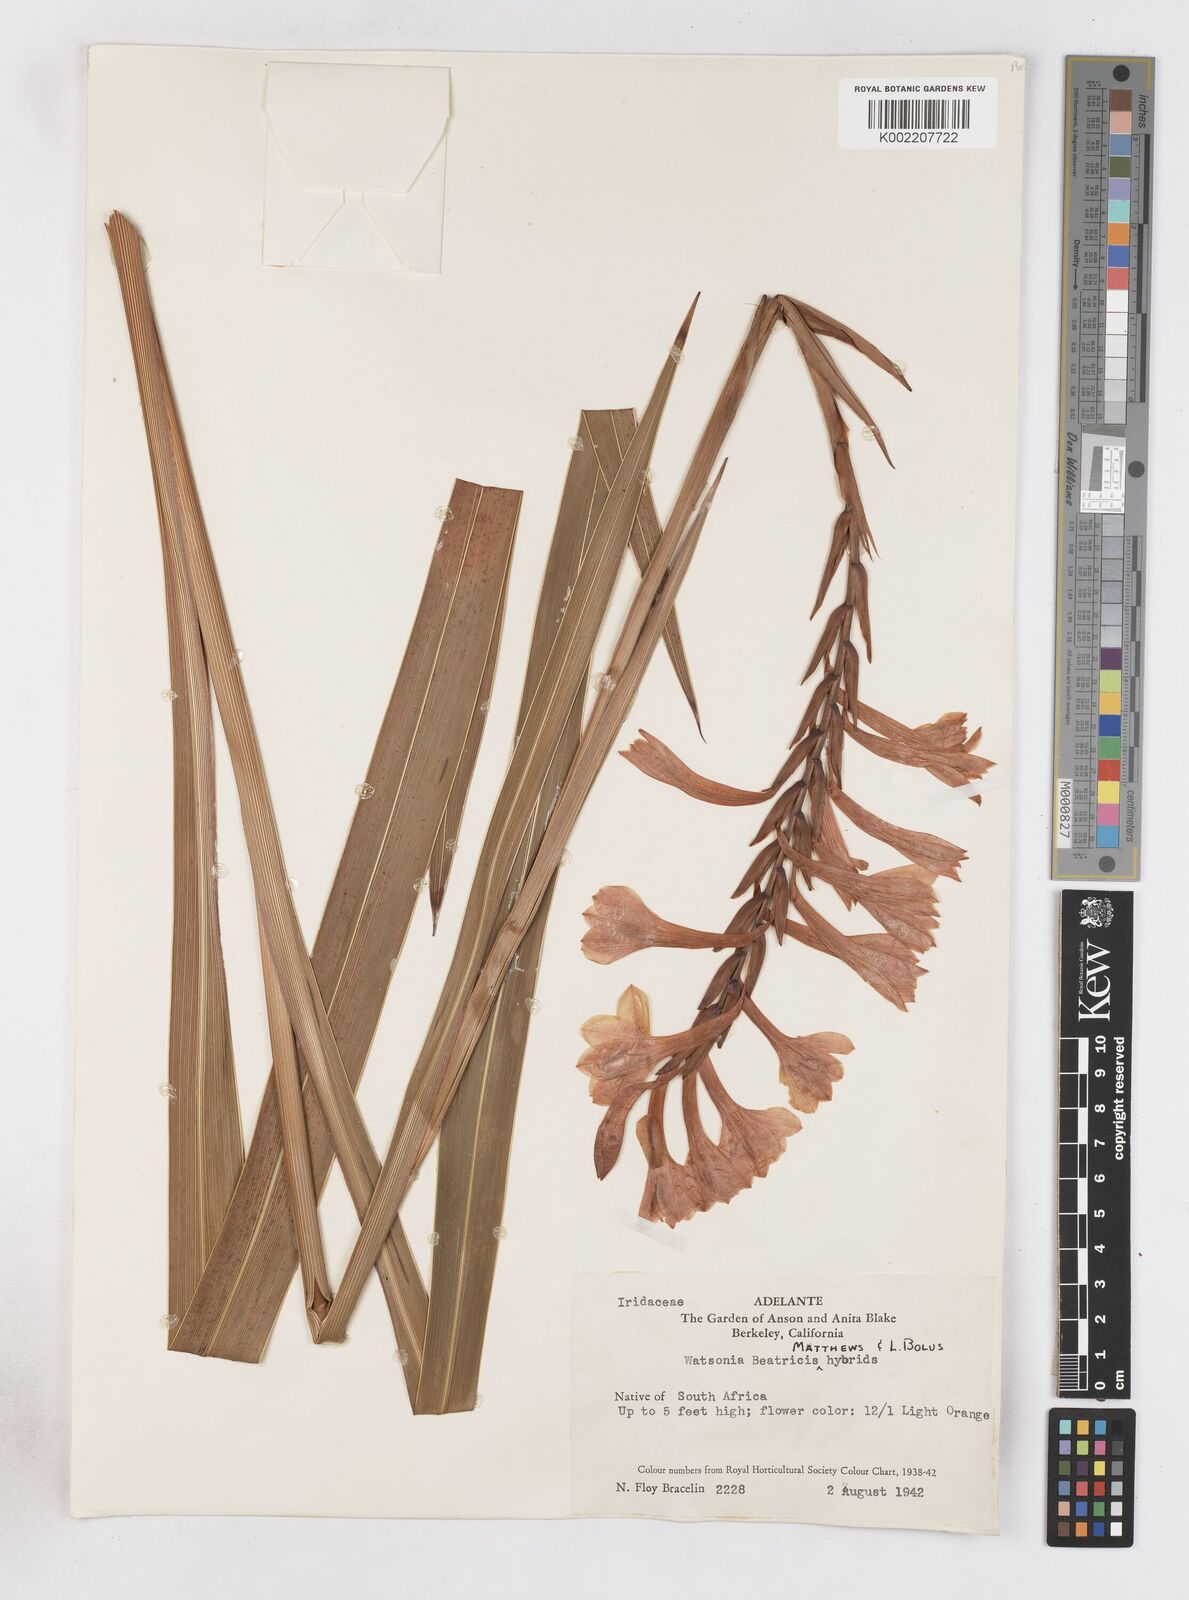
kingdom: Plantae
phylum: Tracheophyta
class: Liliopsida
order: Asparagales
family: Iridaceae
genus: Watsonia
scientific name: Watsonia pillansii
